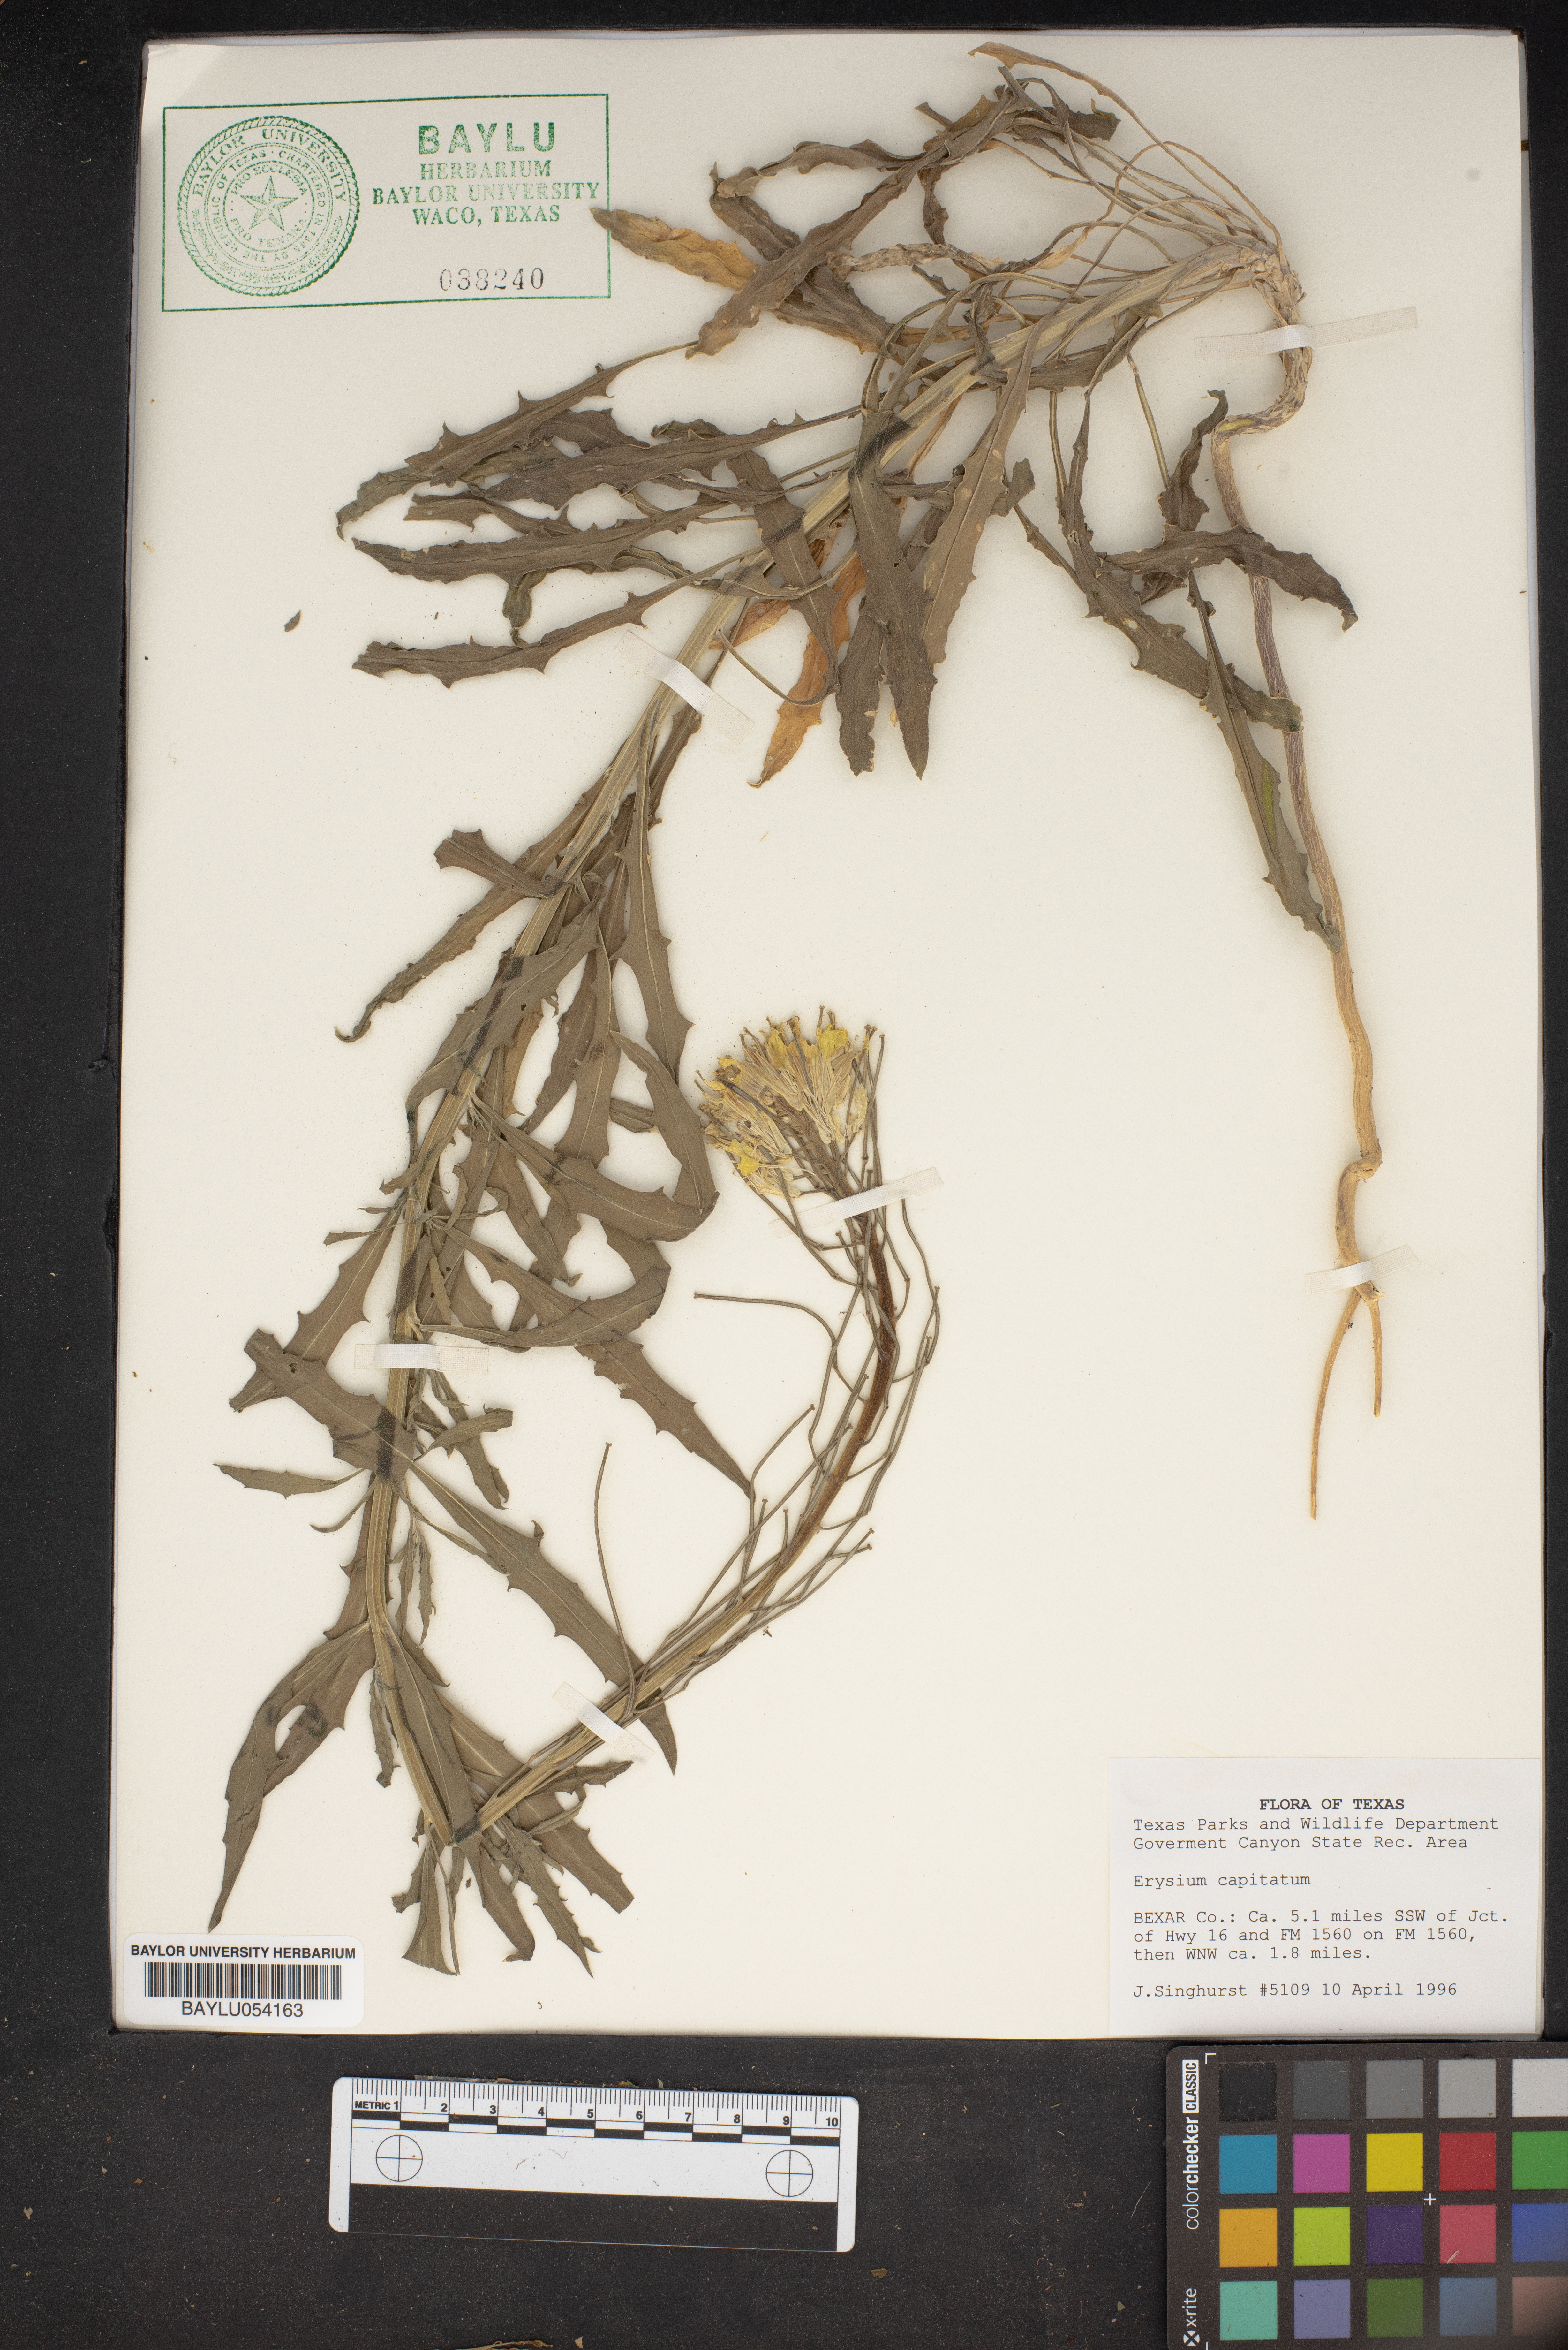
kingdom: Plantae
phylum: Tracheophyta
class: Magnoliopsida
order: Brassicales
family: Brassicaceae
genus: Erysimum
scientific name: Erysimum capitatum
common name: Western wallflower
